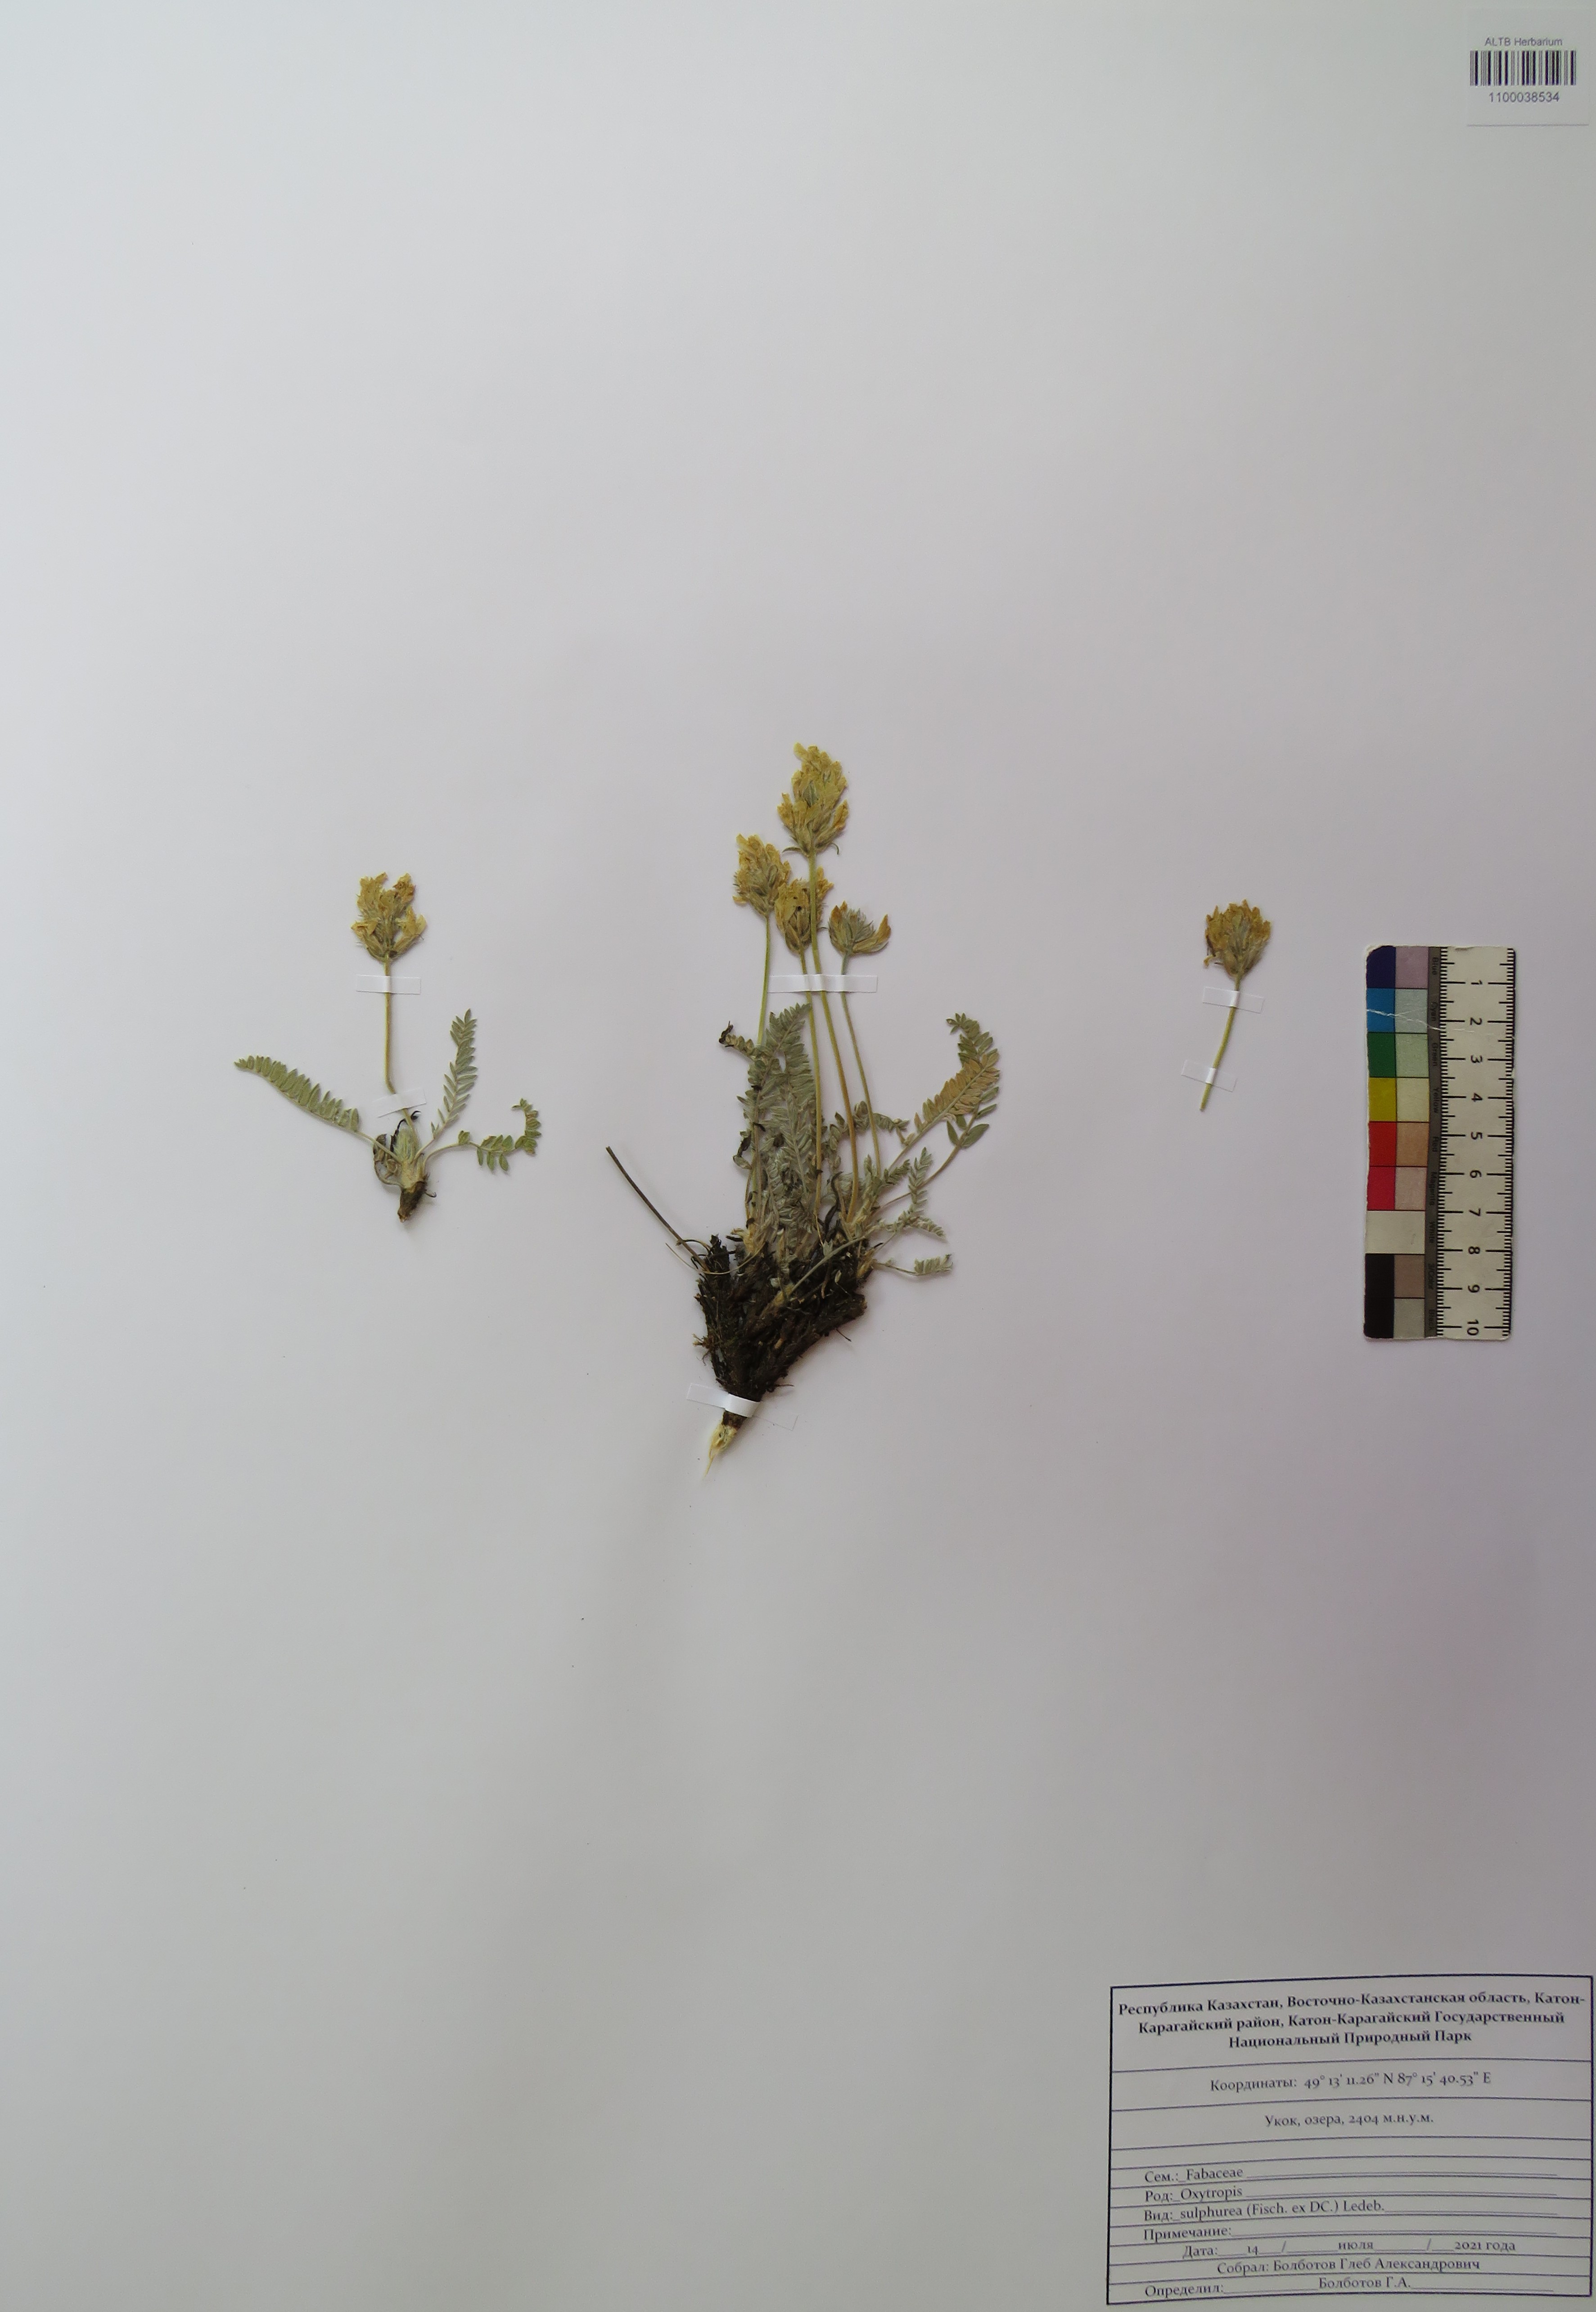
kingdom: Plantae
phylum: Tracheophyta
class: Magnoliopsida
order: Fabales
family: Fabaceae
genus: Oxytropis
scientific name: Oxytropis sulphurea
